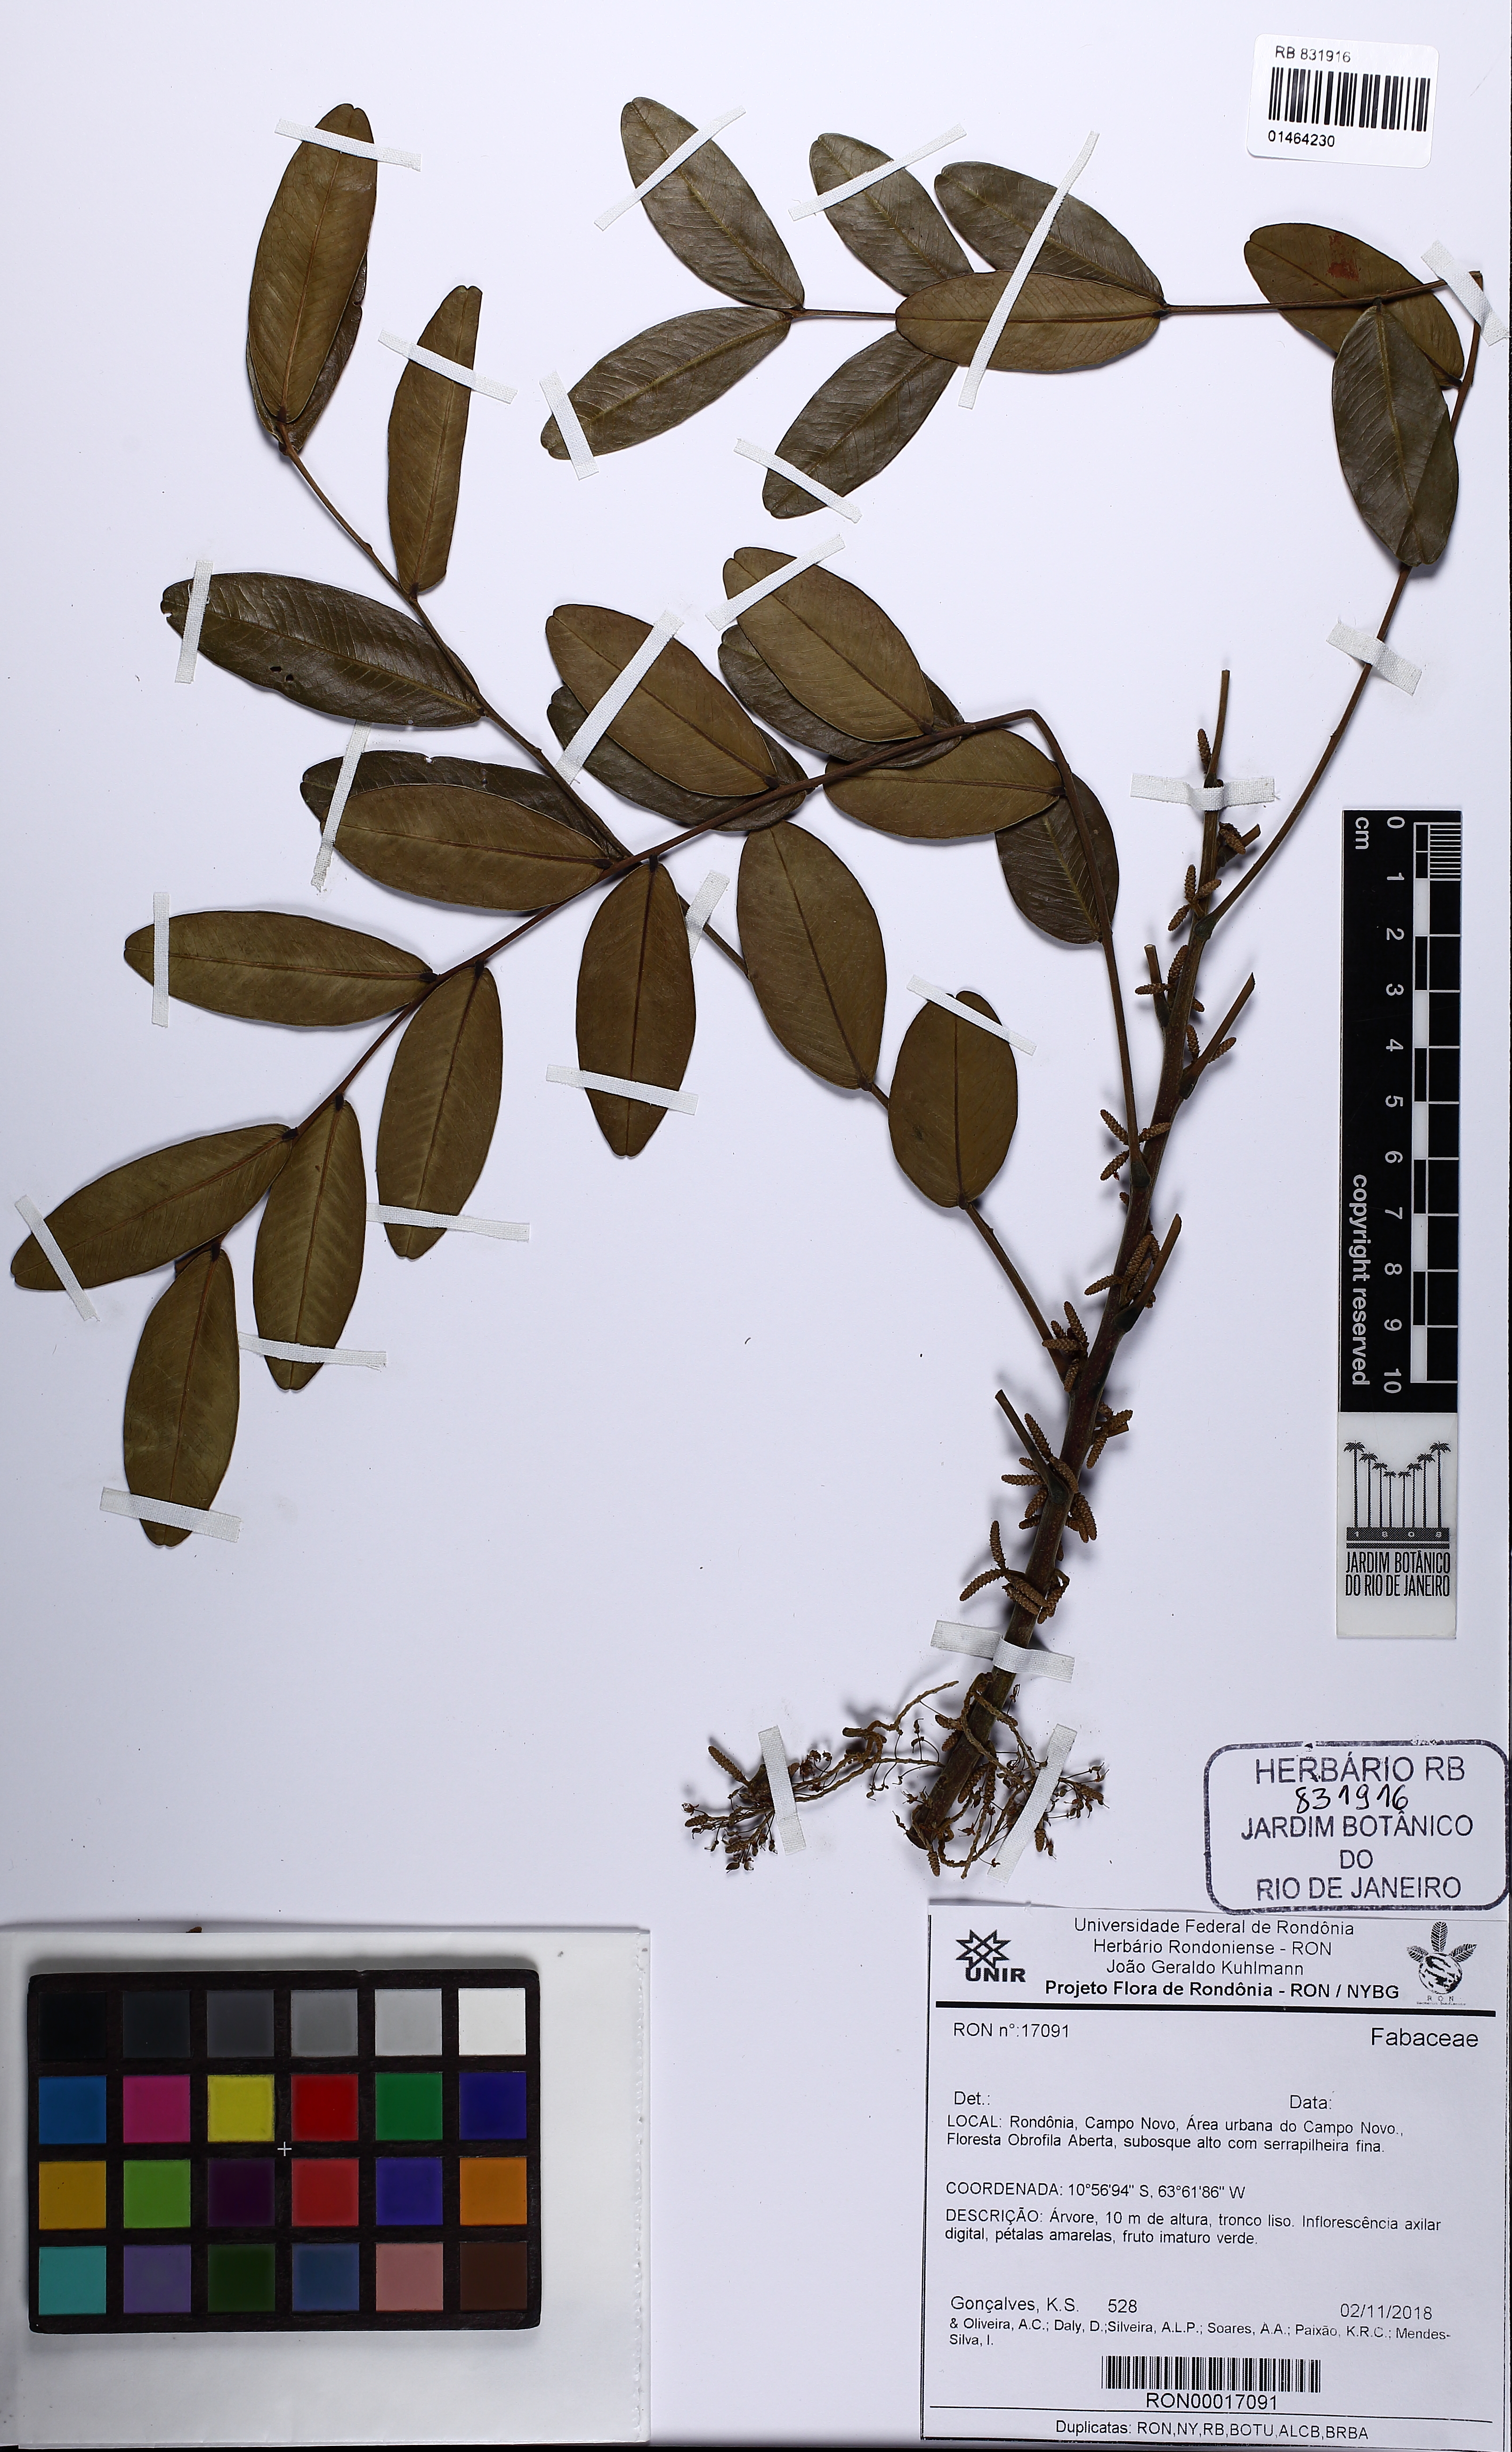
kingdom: Plantae
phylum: Tracheophyta
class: Magnoliopsida
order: Fabales
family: Fabaceae
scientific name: Fabaceae
